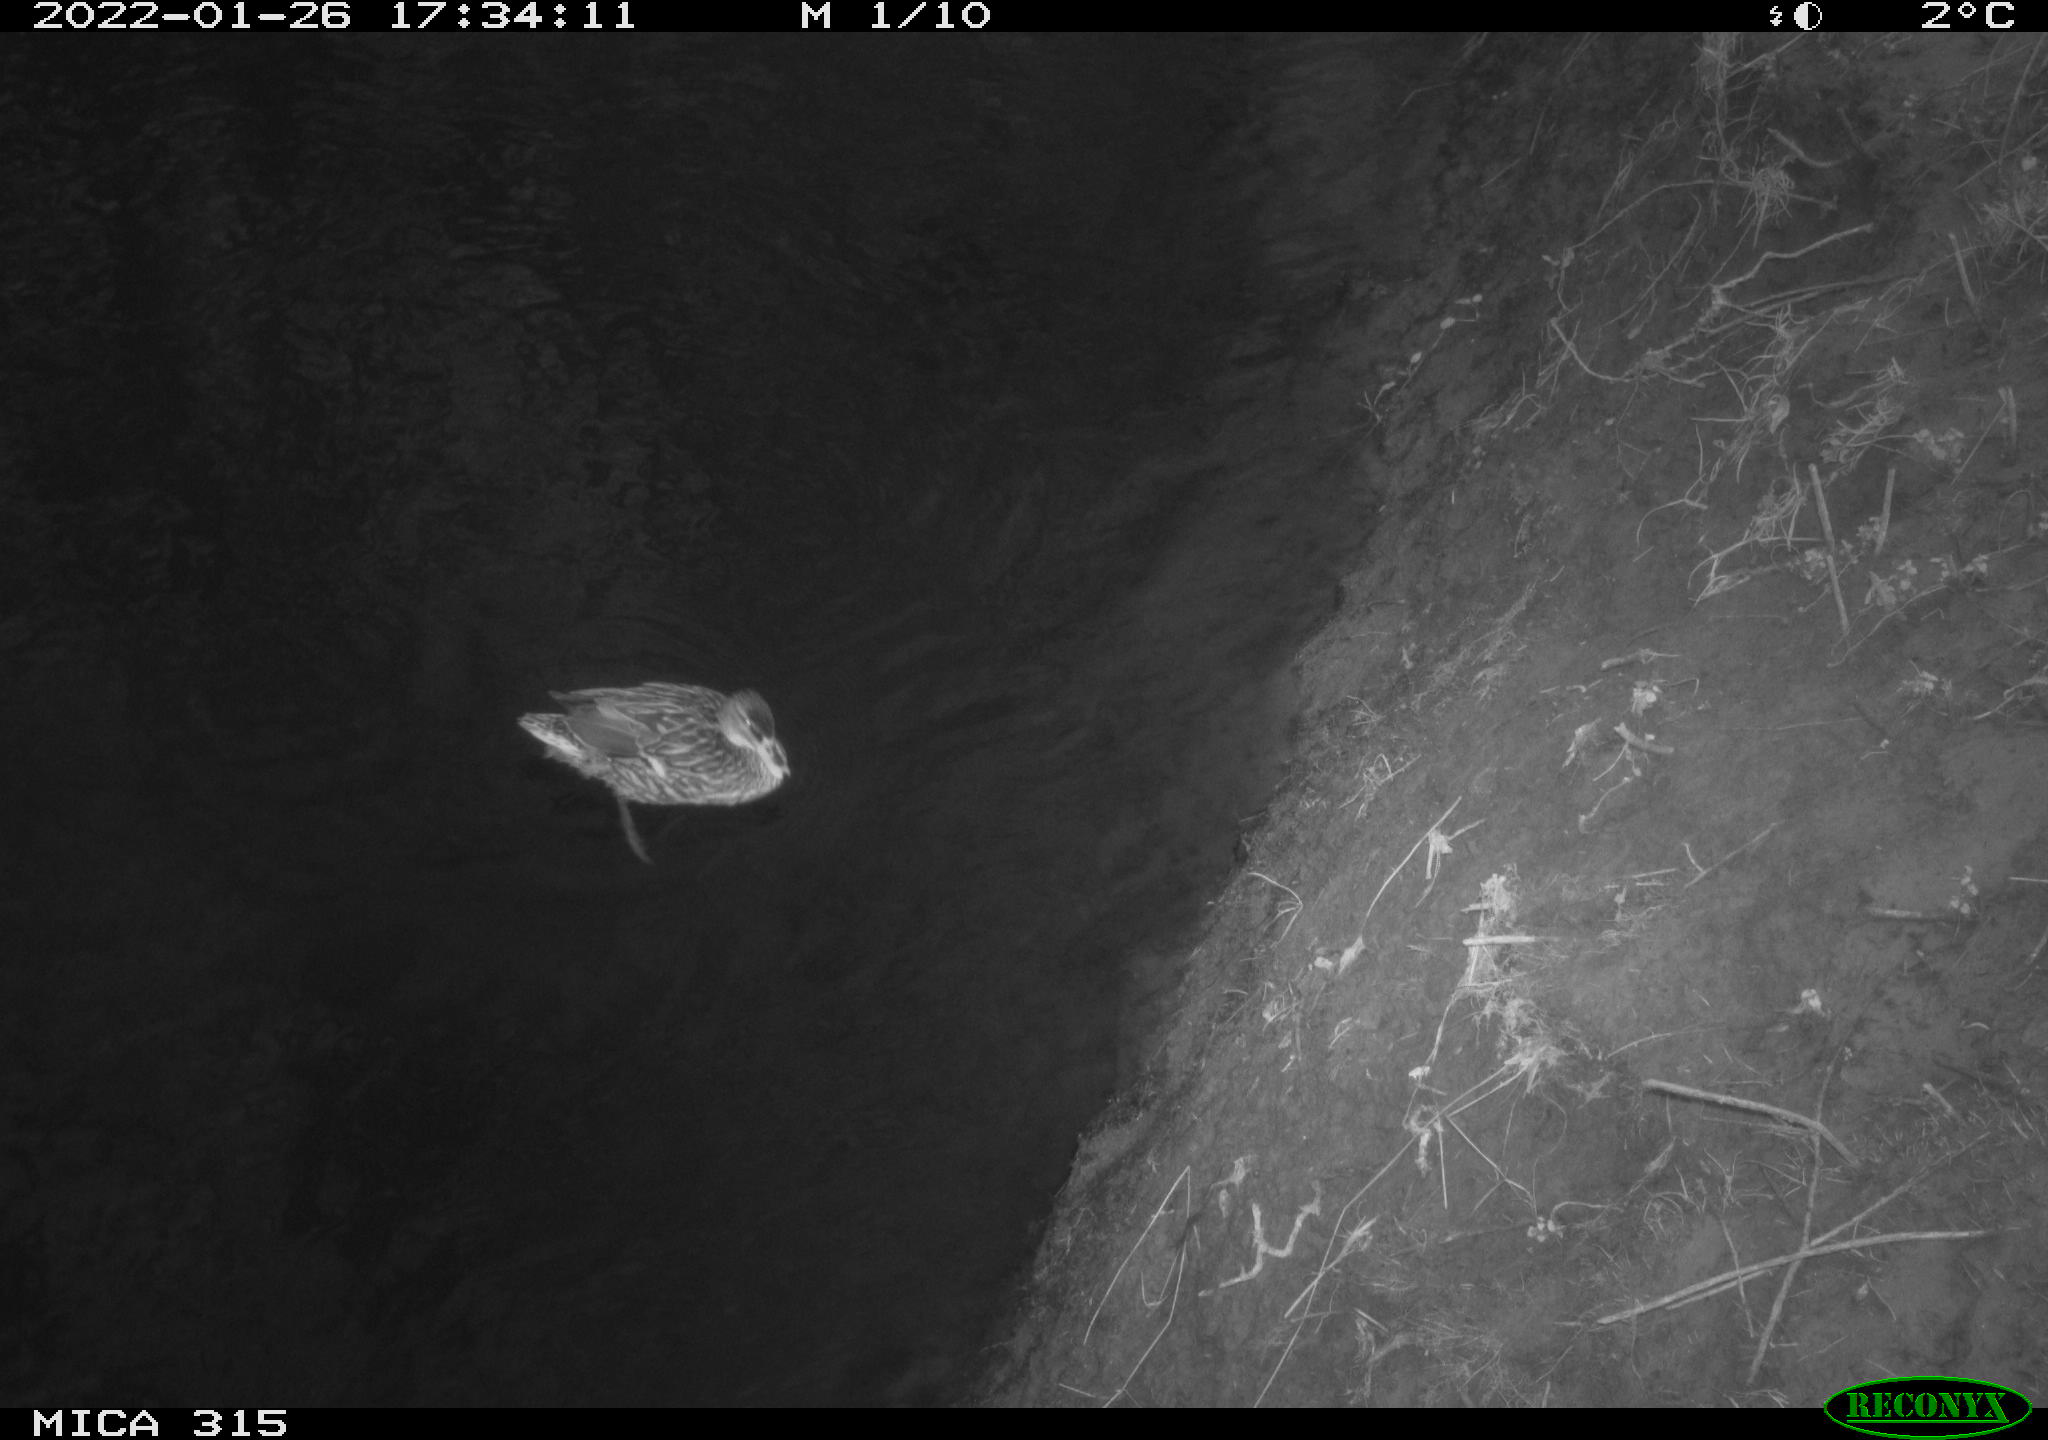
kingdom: Animalia
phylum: Chordata
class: Aves
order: Anseriformes
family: Anatidae
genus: Anas
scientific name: Anas
